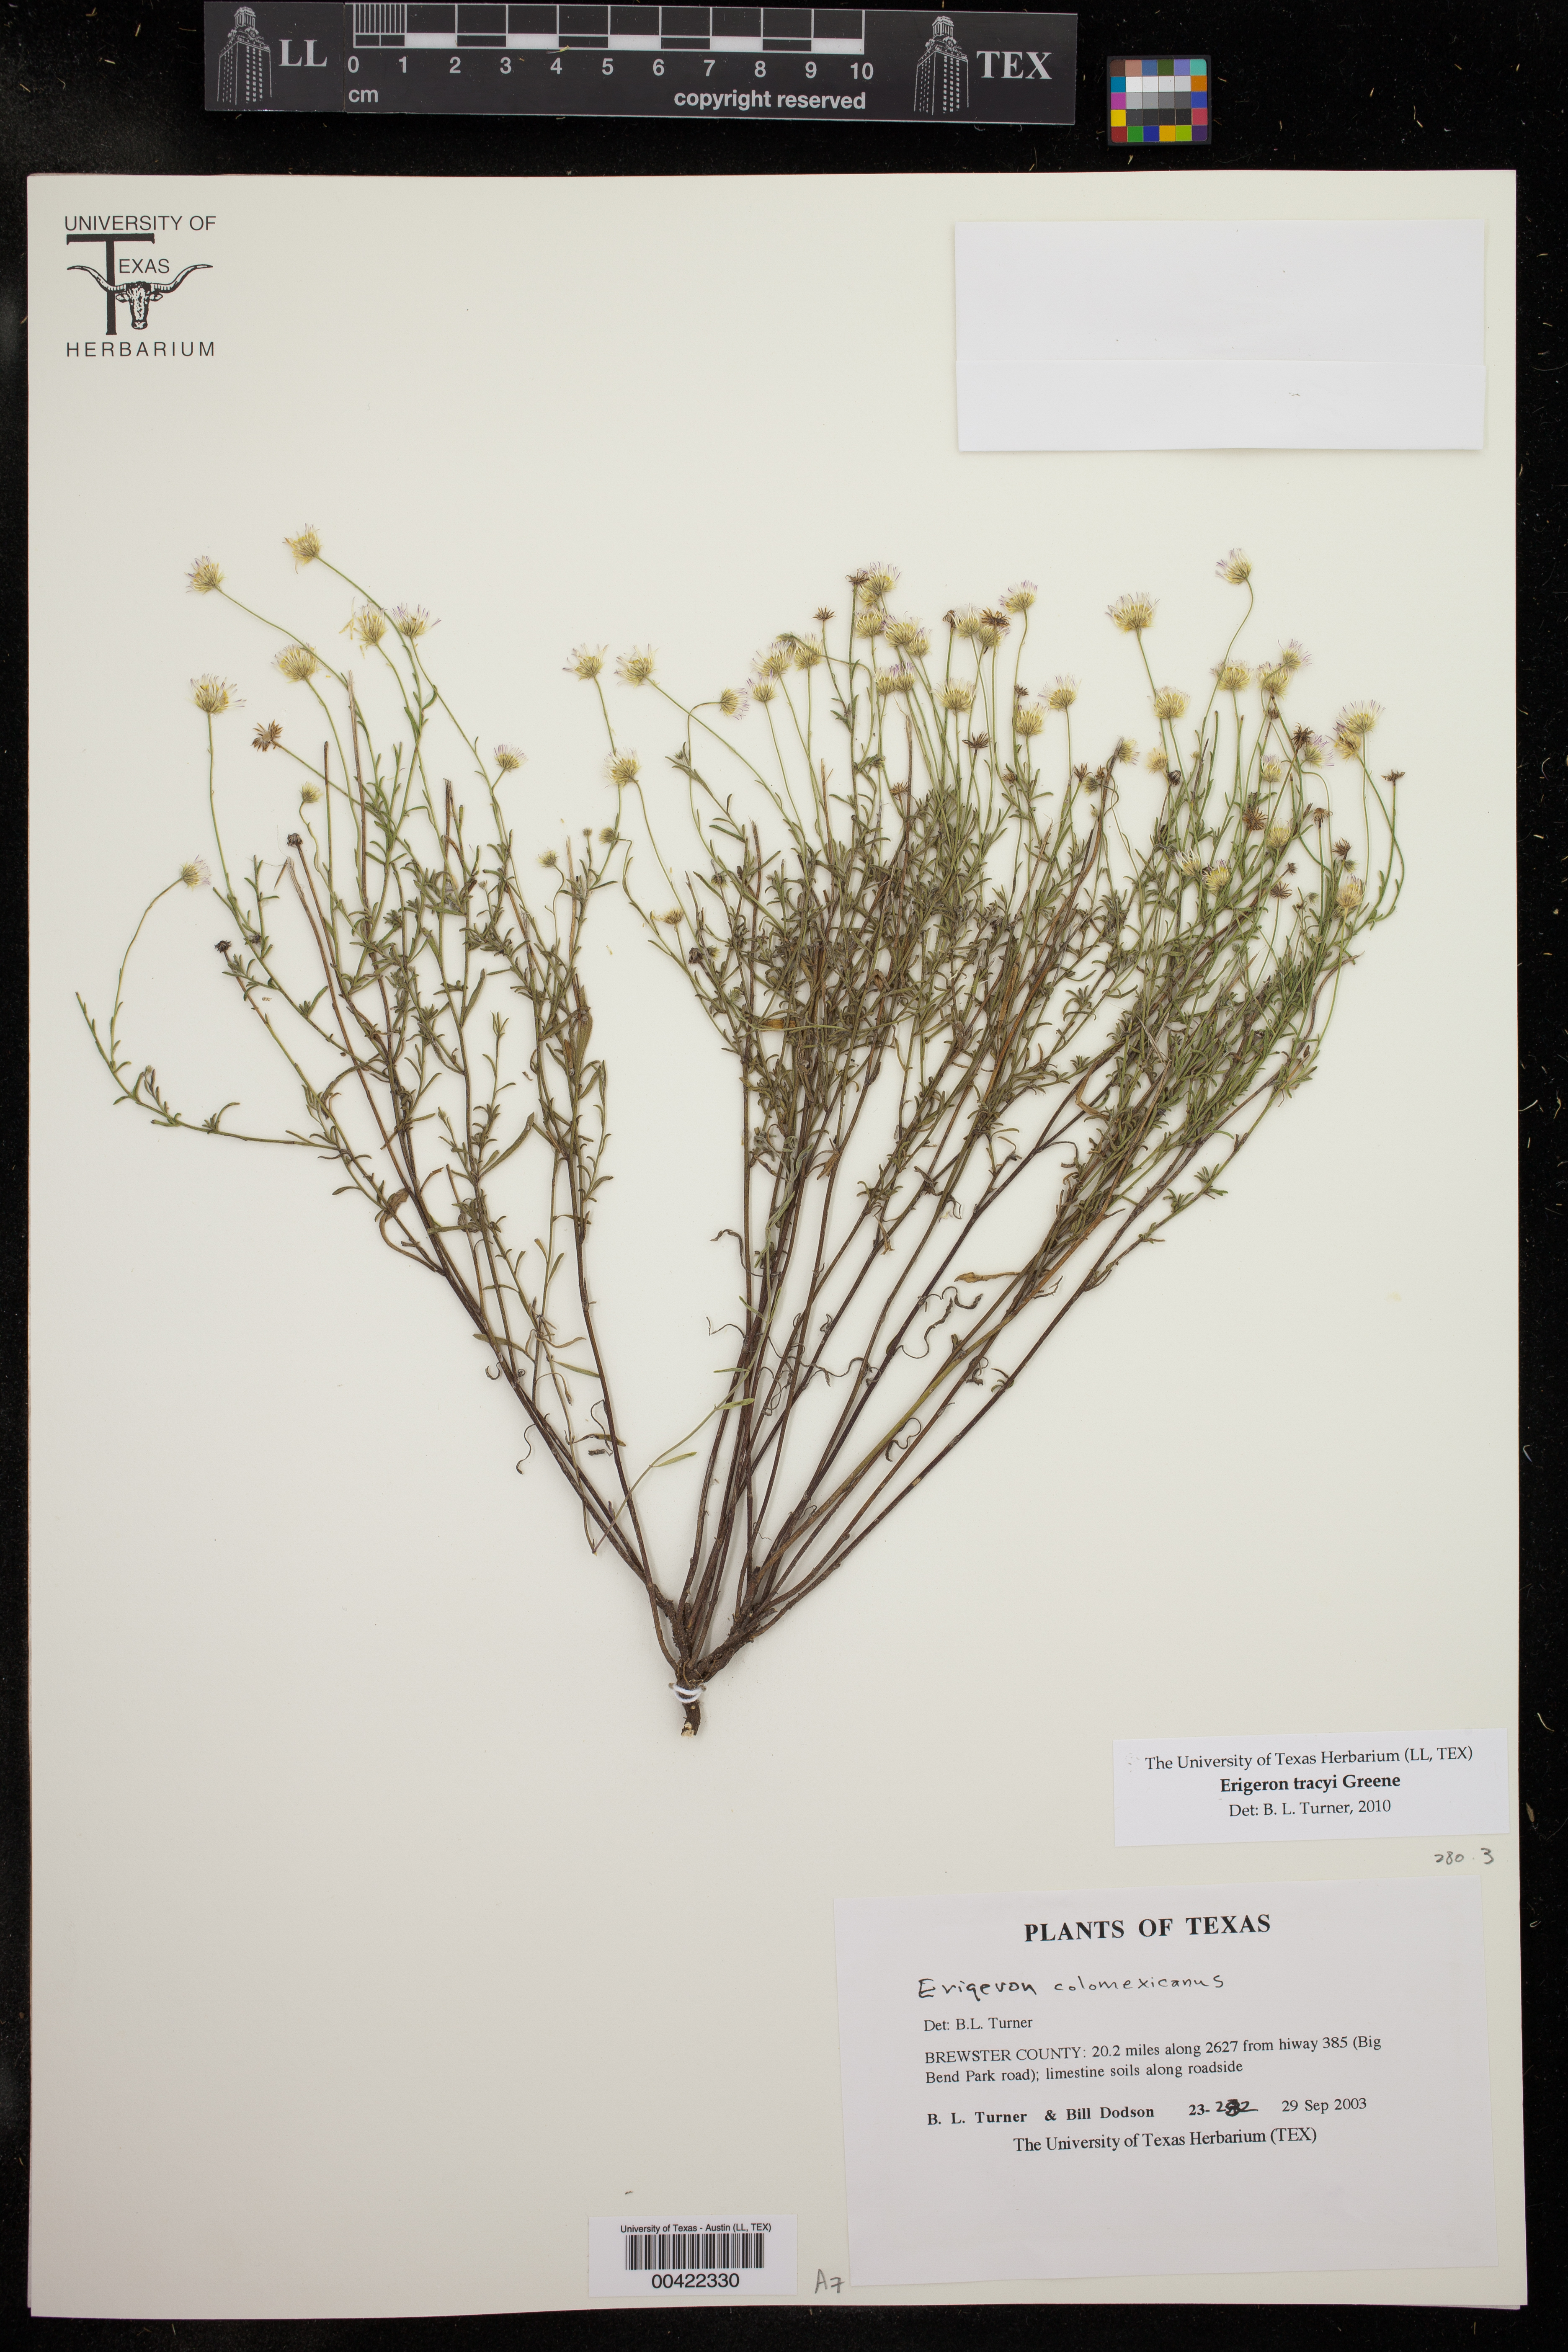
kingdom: Plantae
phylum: Tracheophyta
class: Magnoliopsida
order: Asterales
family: Asteraceae
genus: Erigeron
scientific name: Erigeron tracyi
